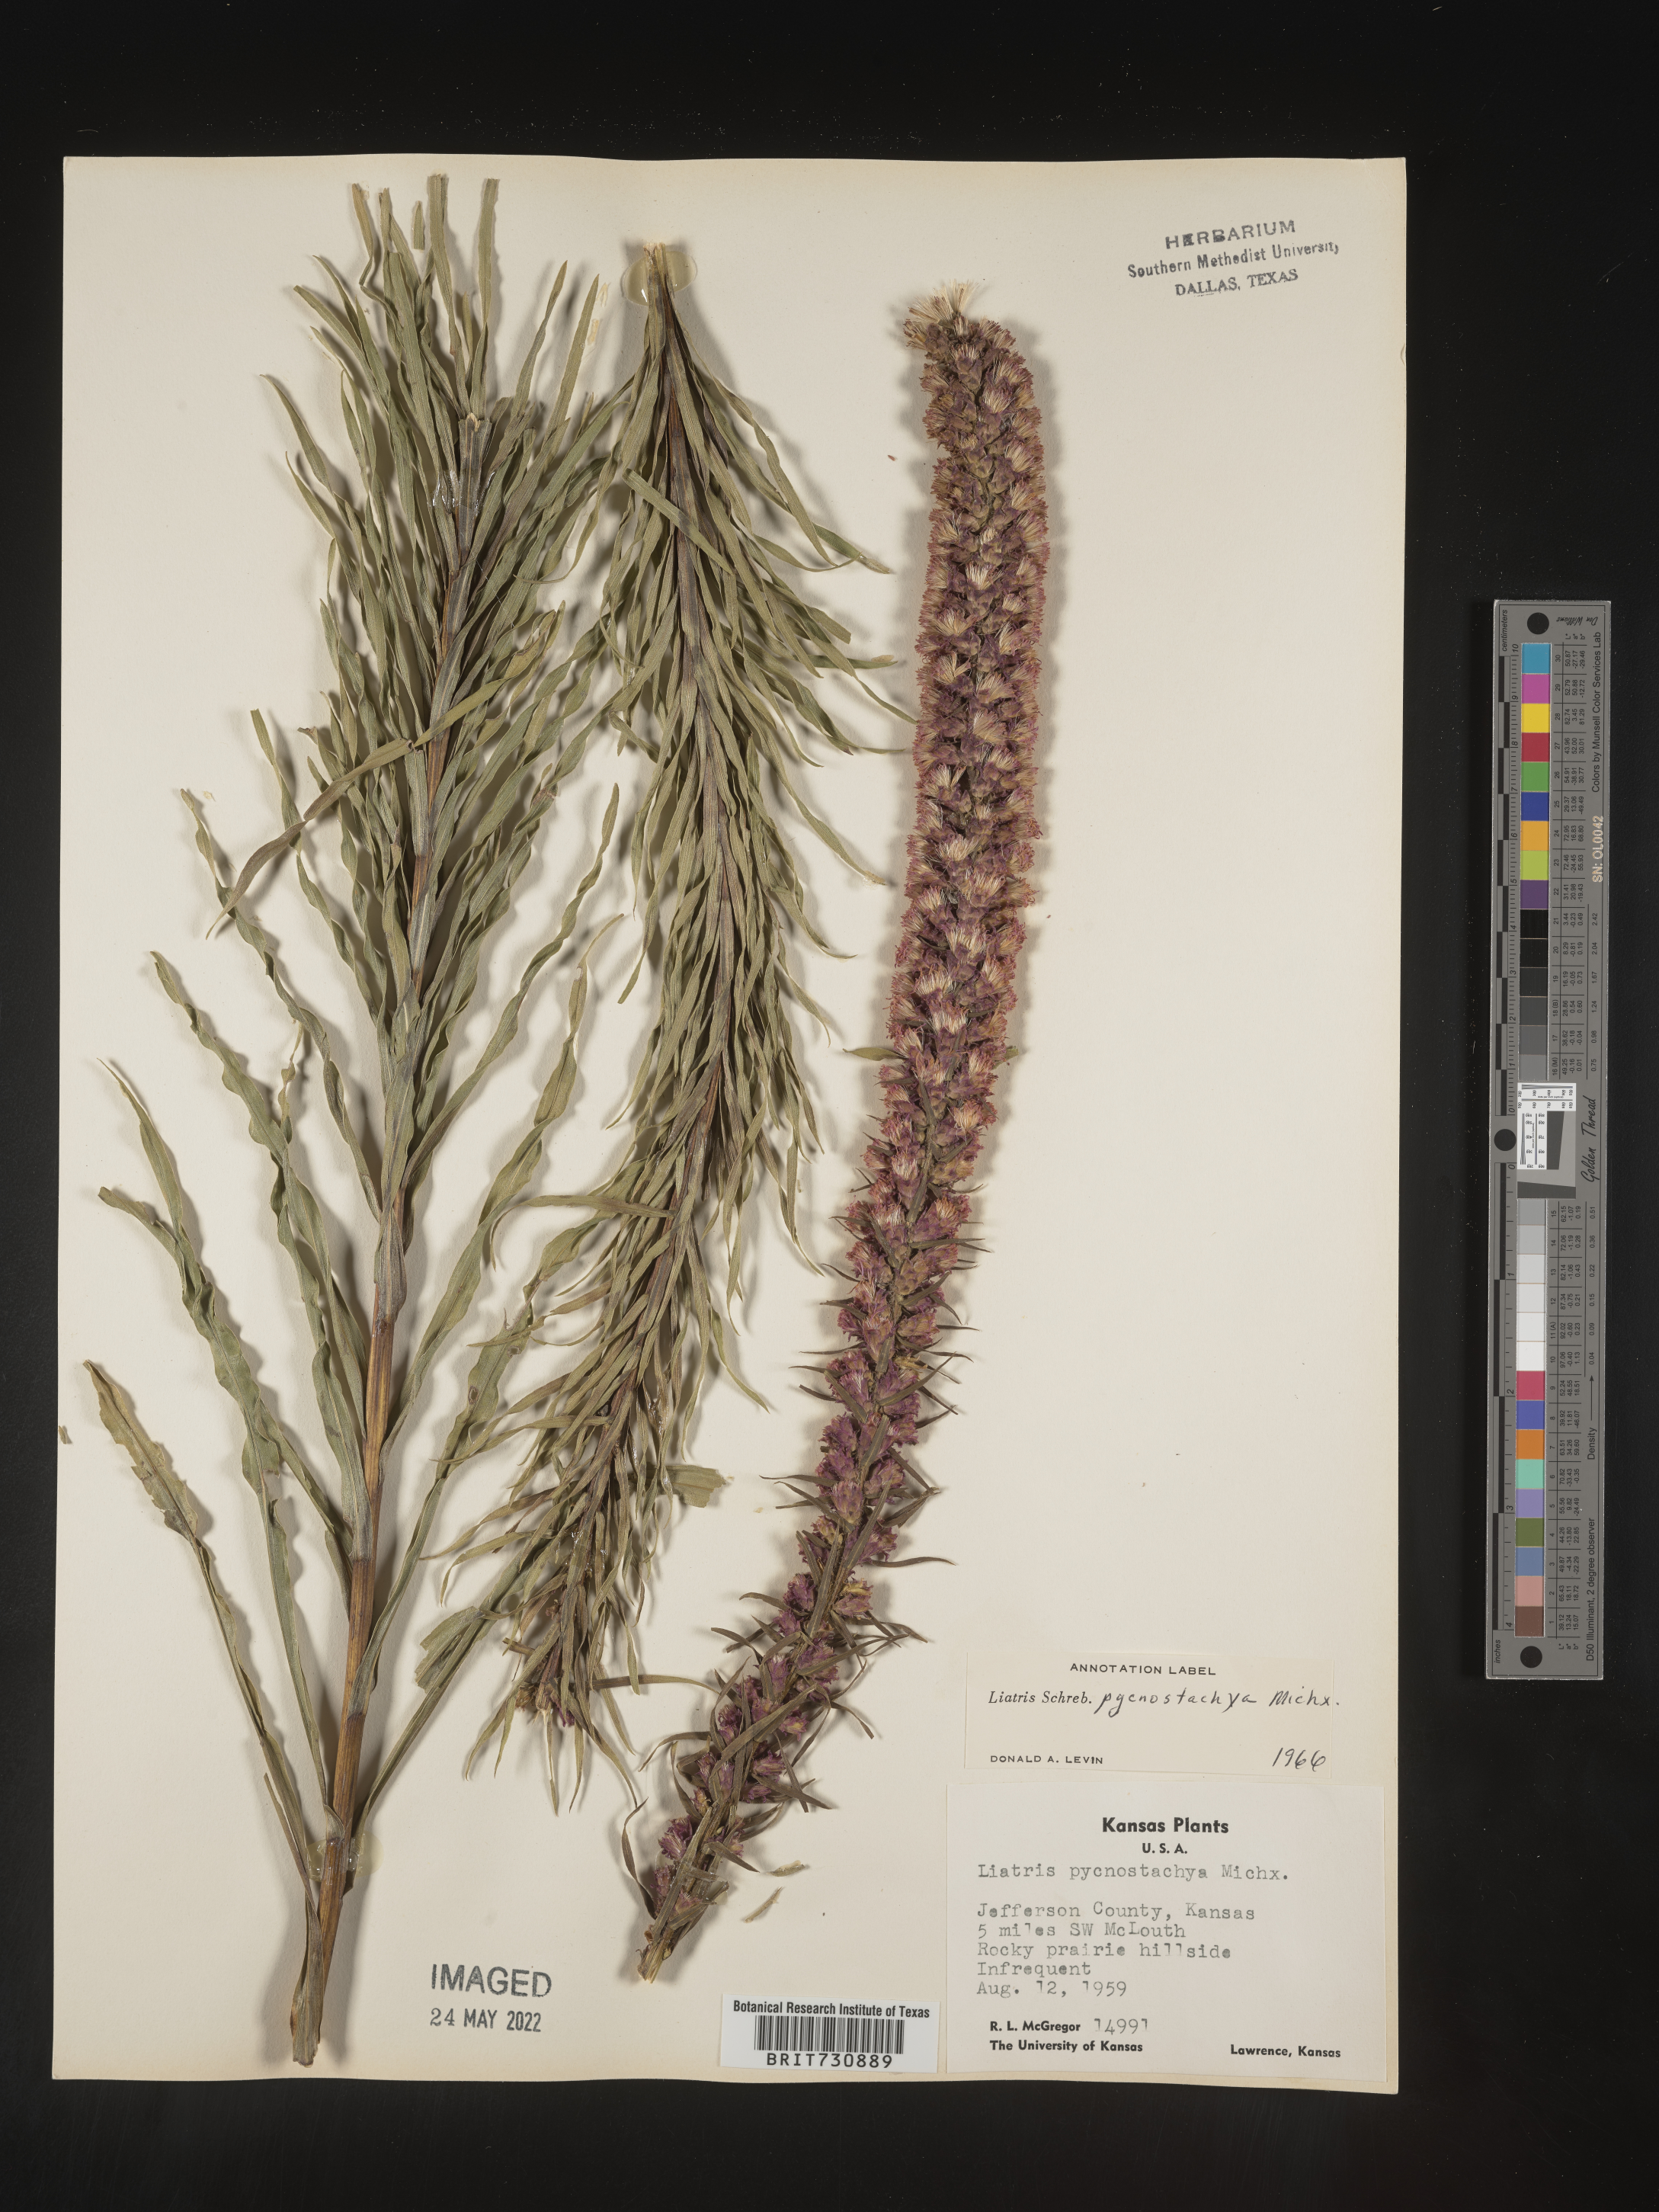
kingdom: Plantae
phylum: Tracheophyta
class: Magnoliopsida
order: Asterales
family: Asteraceae
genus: Liatris
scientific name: Liatris pycnostachya
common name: Cattail gayfeather
